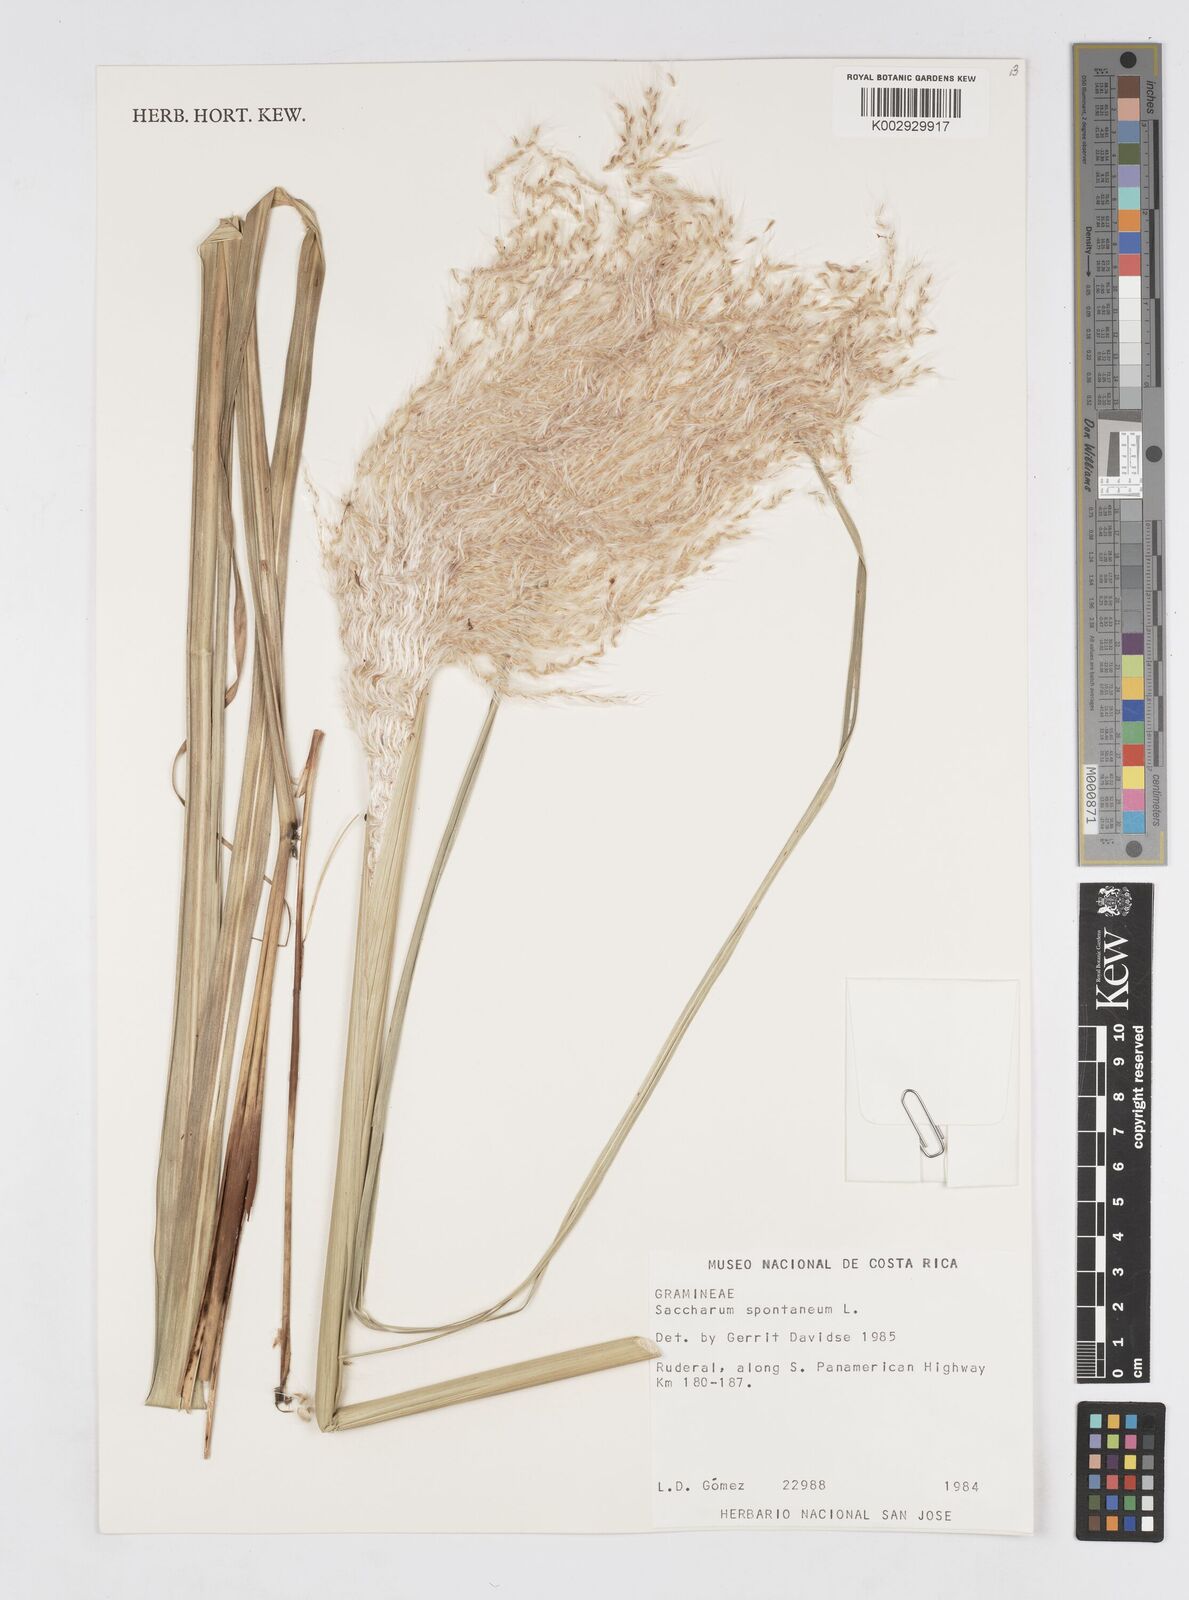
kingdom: Plantae
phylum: Tracheophyta
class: Liliopsida
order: Poales
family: Poaceae
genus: Saccharum
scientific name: Saccharum spontaneum
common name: Wild sugarcane
